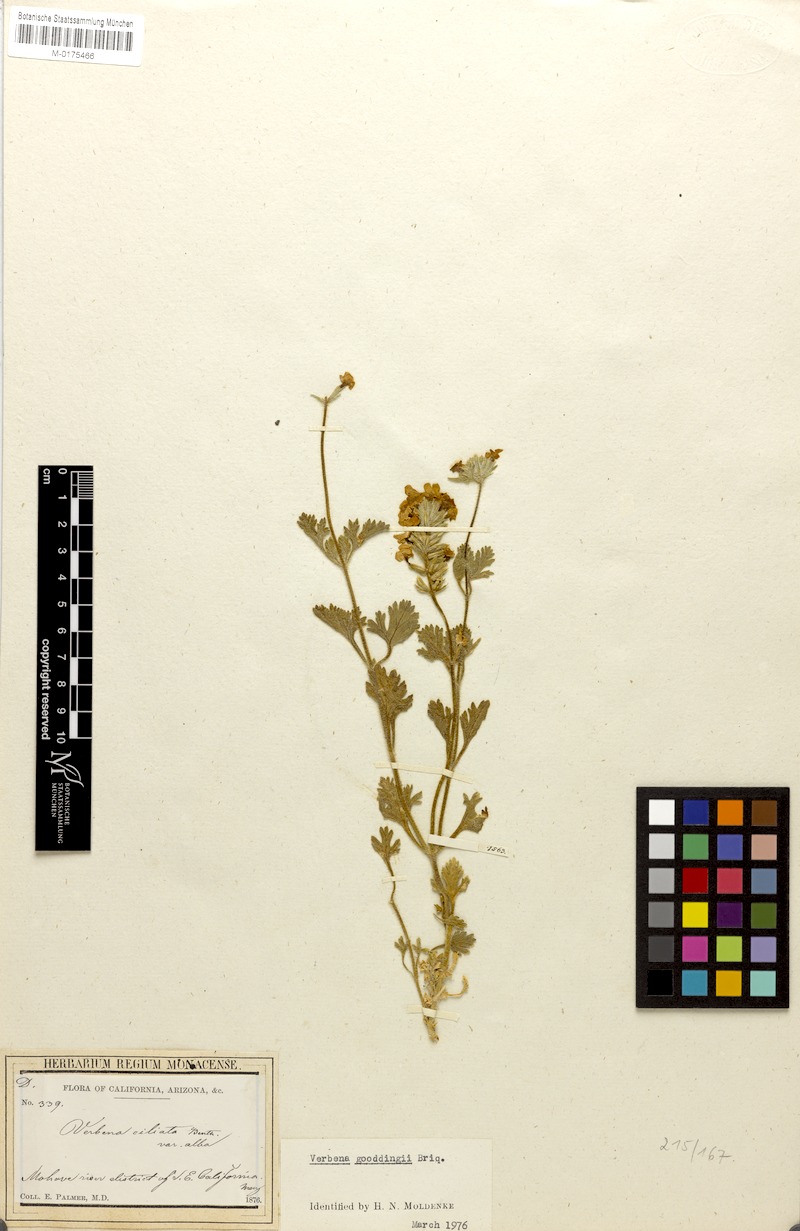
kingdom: Plantae
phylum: Tracheophyta
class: Magnoliopsida
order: Lamiales
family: Verbenaceae
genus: Verbena
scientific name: Verbena gooddingii
